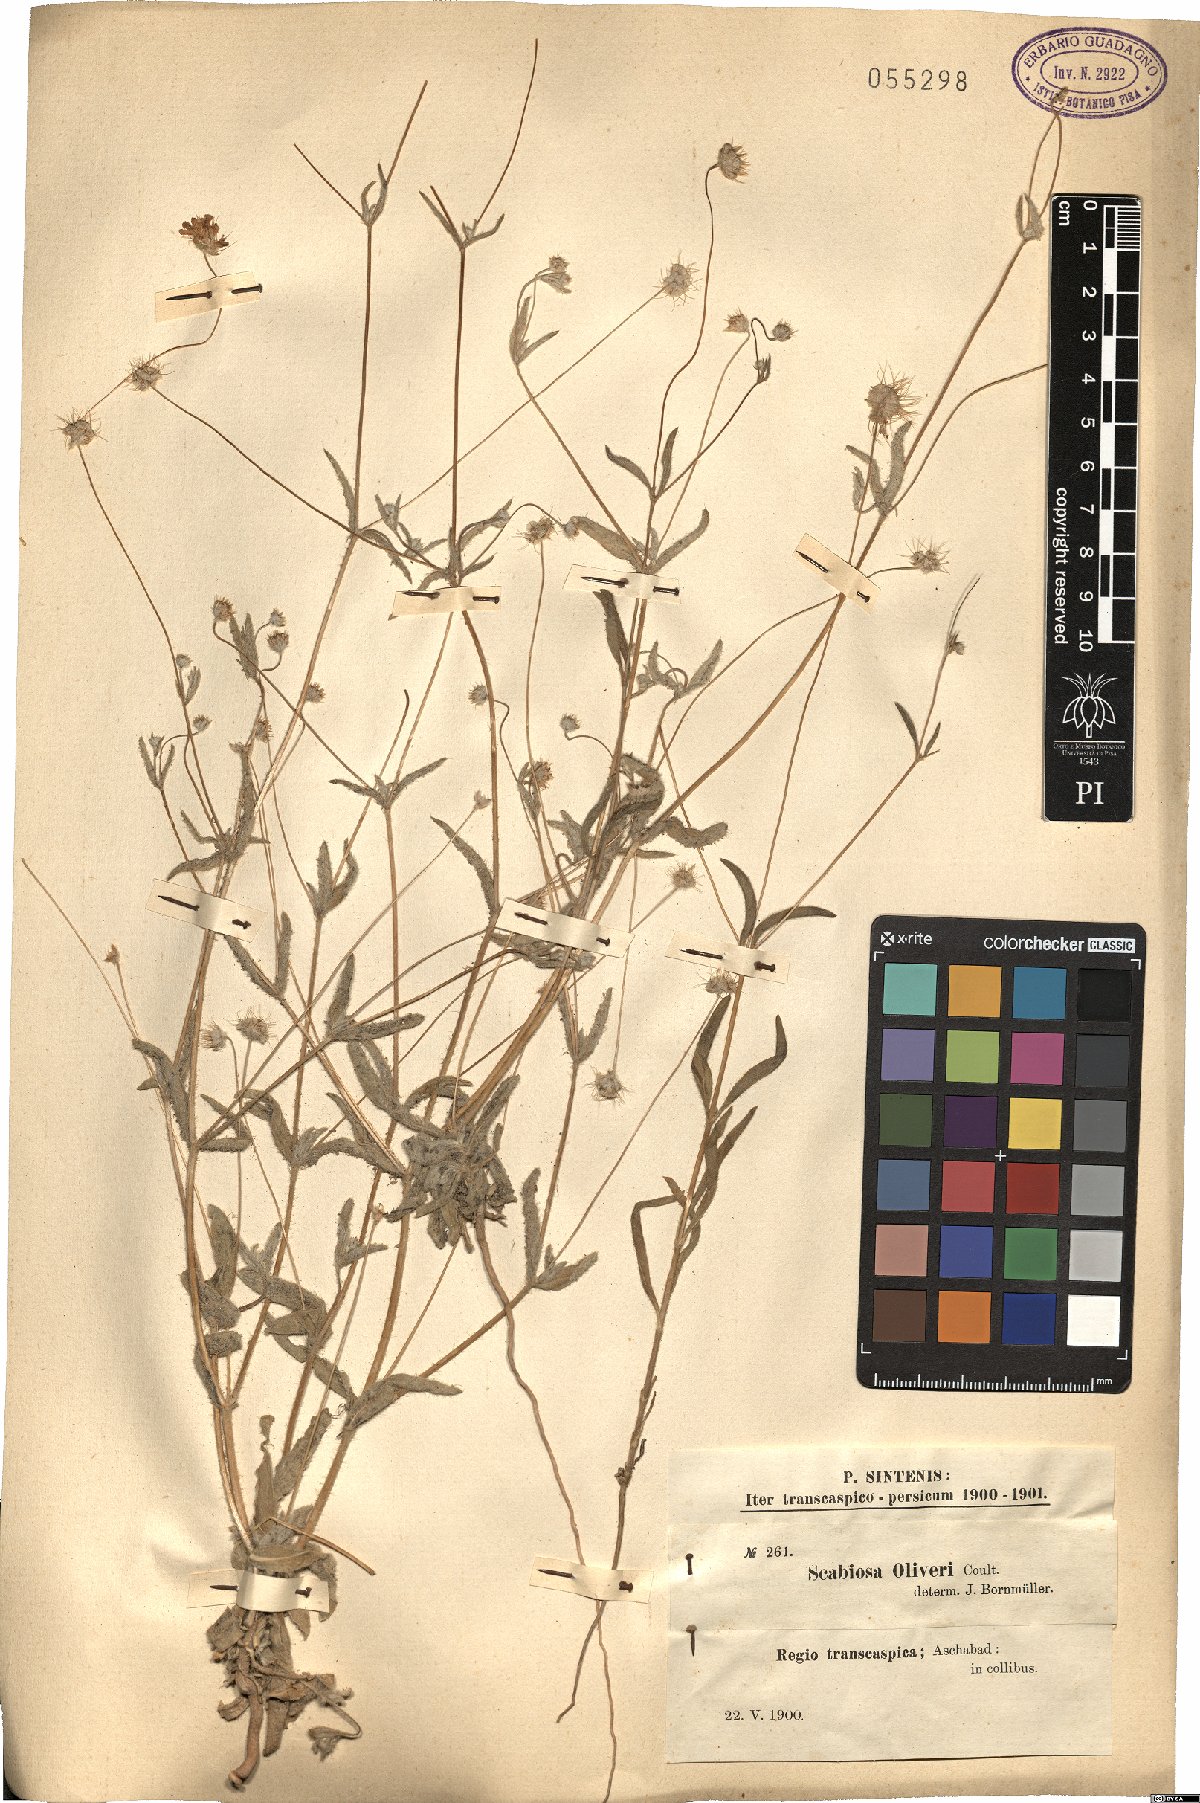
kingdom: Plantae
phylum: Tracheophyta
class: Magnoliopsida
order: Dipsacales
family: Caprifoliaceae
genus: Lomelosia
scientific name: Lomelosia olivieri
